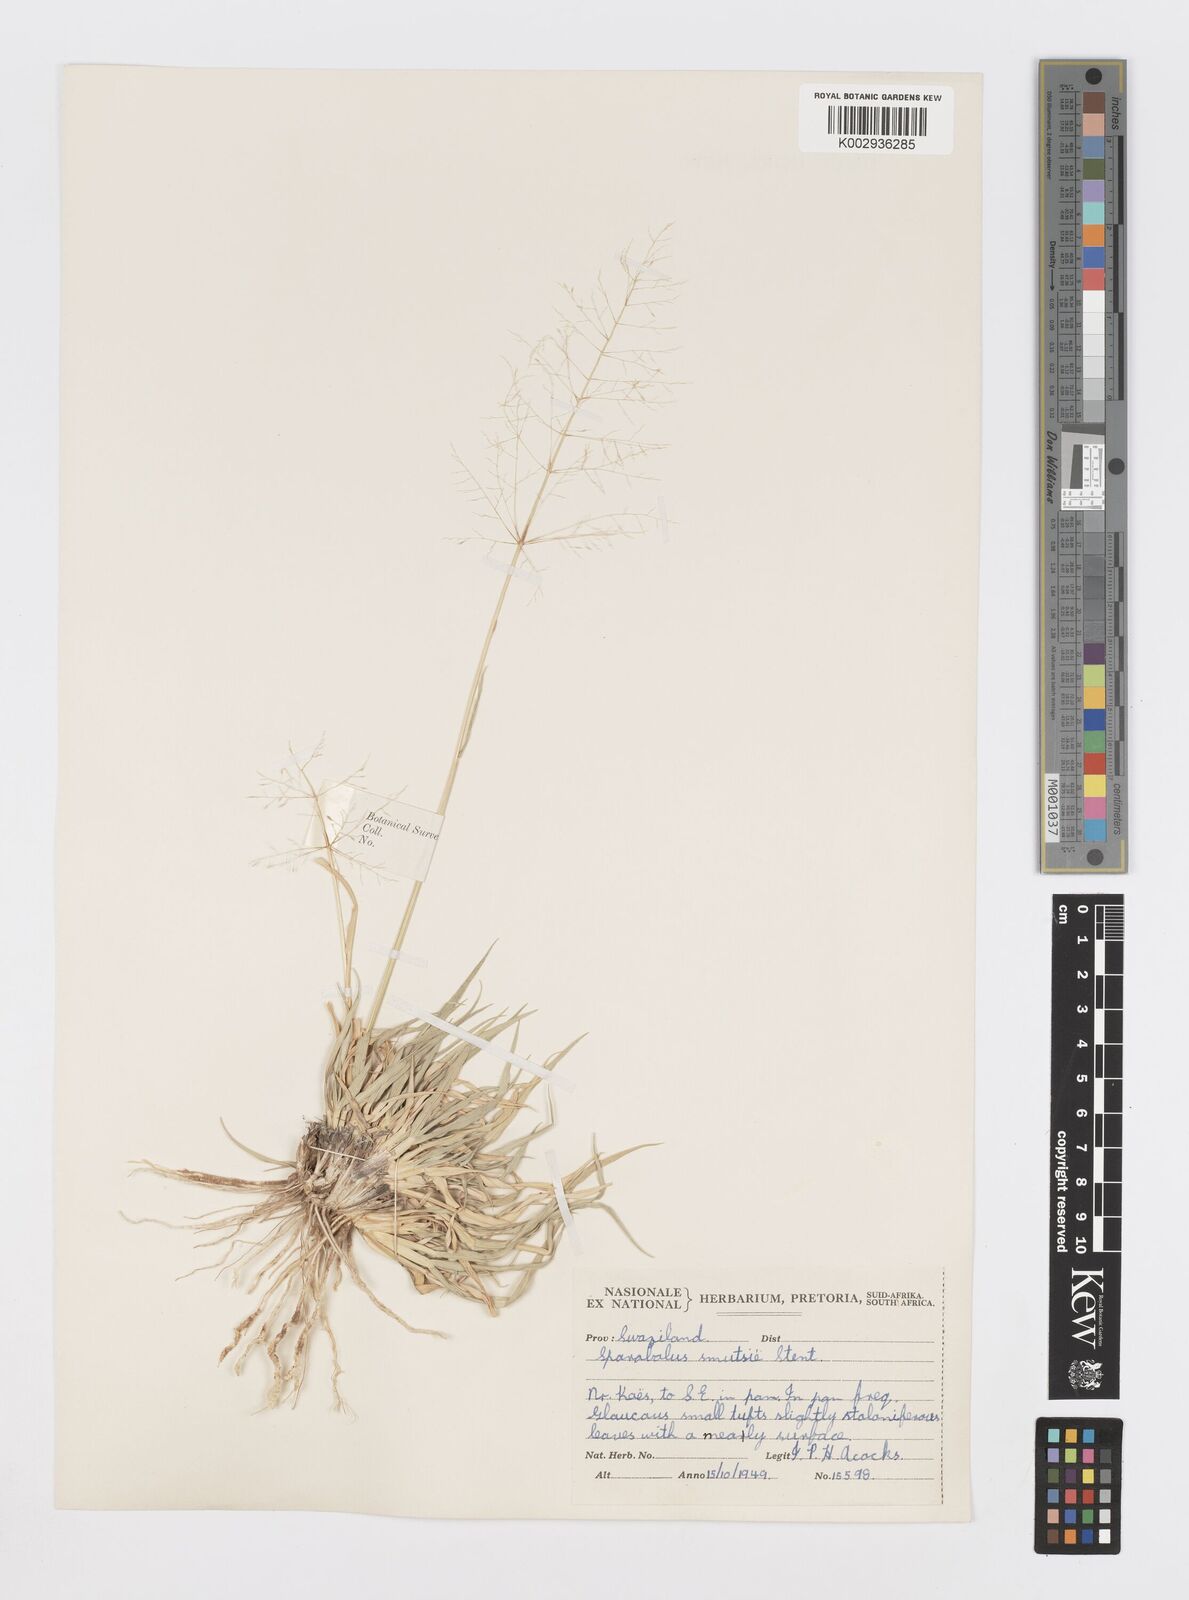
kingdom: Plantae
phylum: Tracheophyta
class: Liliopsida
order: Poales
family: Poaceae
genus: Sporobolus
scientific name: Sporobolus ioclados
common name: Pan dropseed
